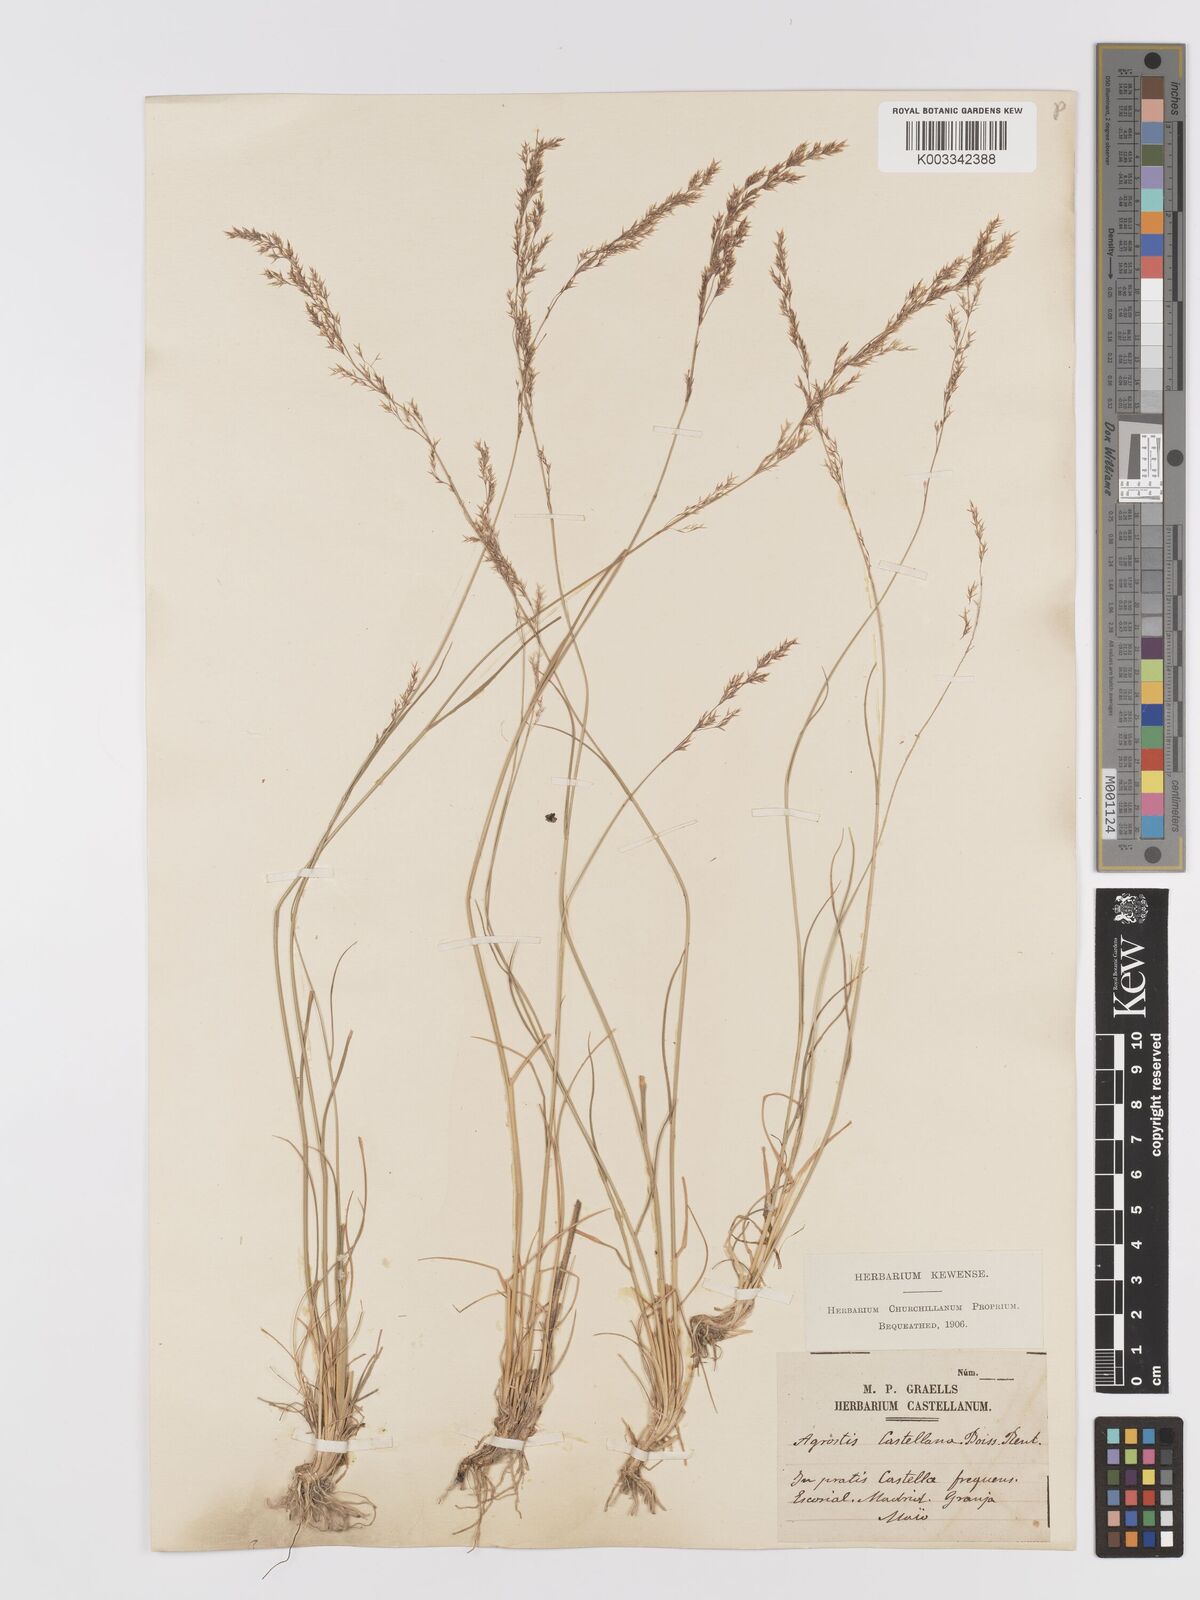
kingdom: Plantae
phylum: Tracheophyta
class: Liliopsida
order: Poales
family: Poaceae
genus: Agrostis
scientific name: Agrostis castellana
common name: Highland bent
